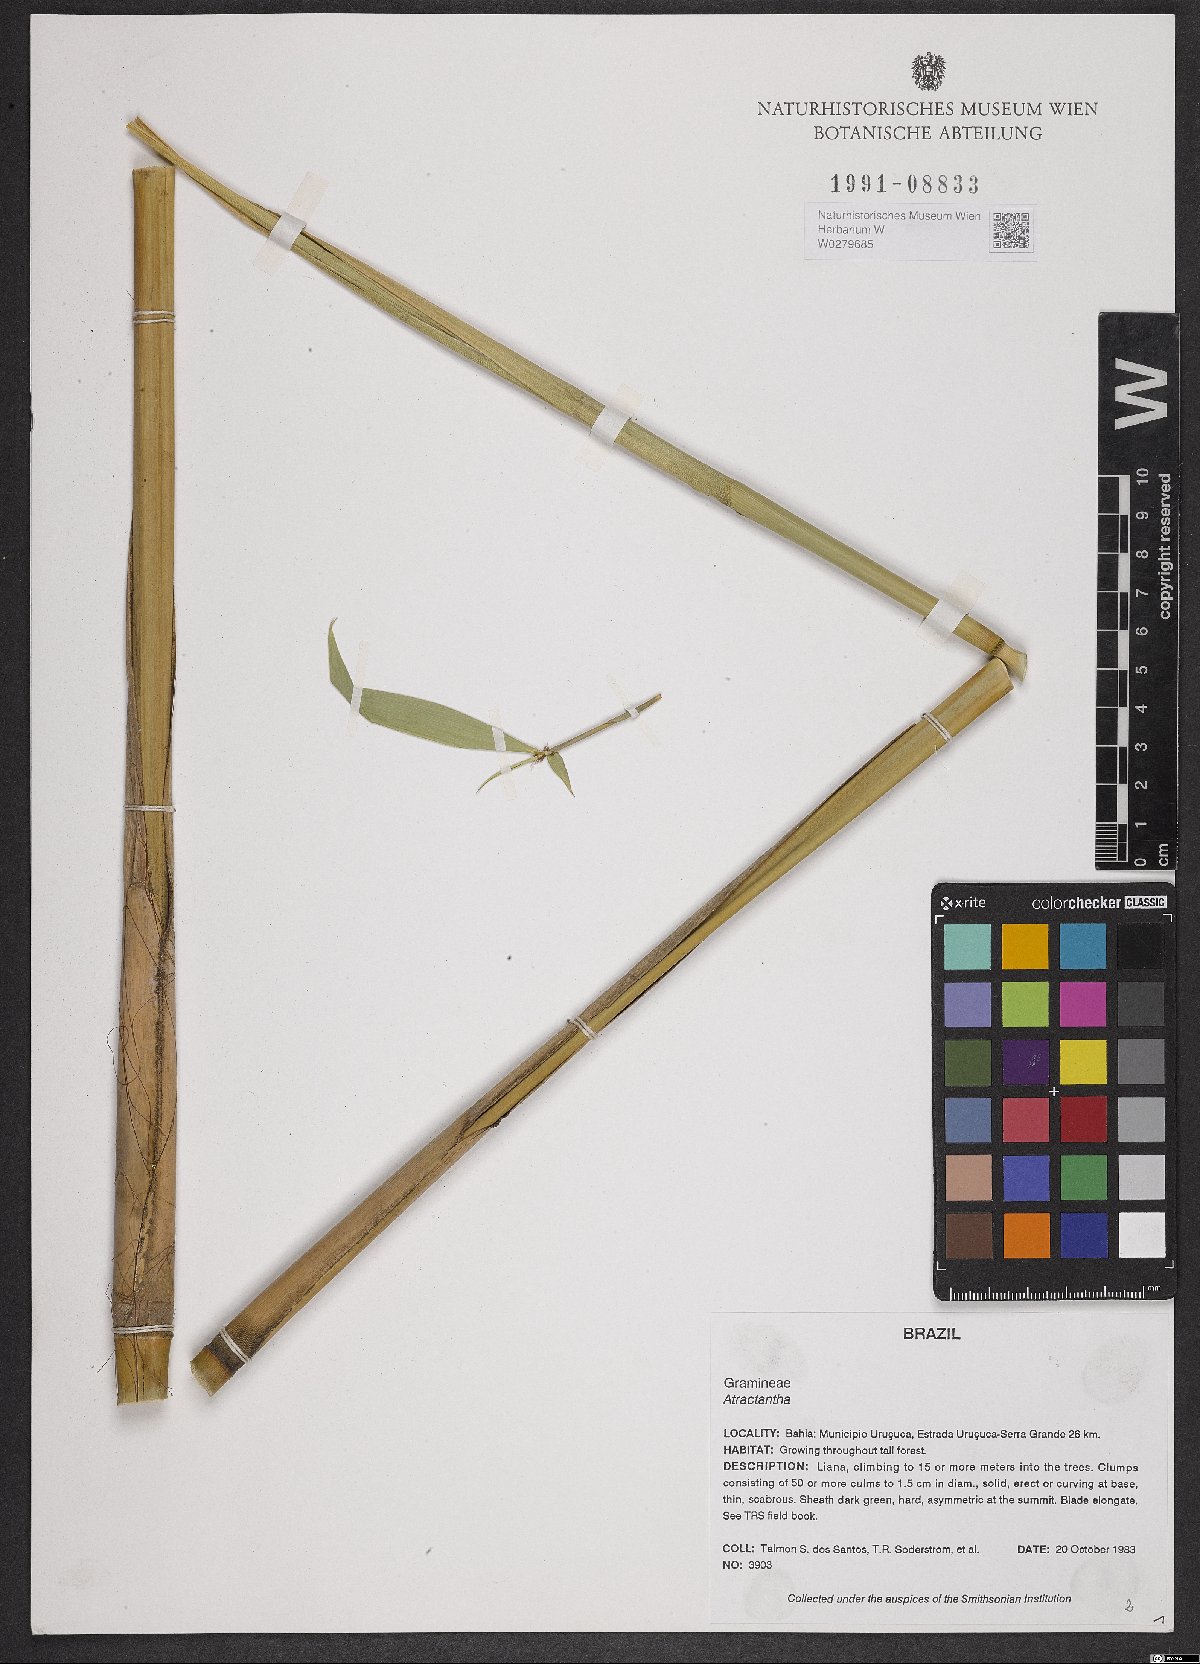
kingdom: Plantae
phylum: Tracheophyta
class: Liliopsida
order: Poales
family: Poaceae
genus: Atractantha
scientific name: Atractantha
